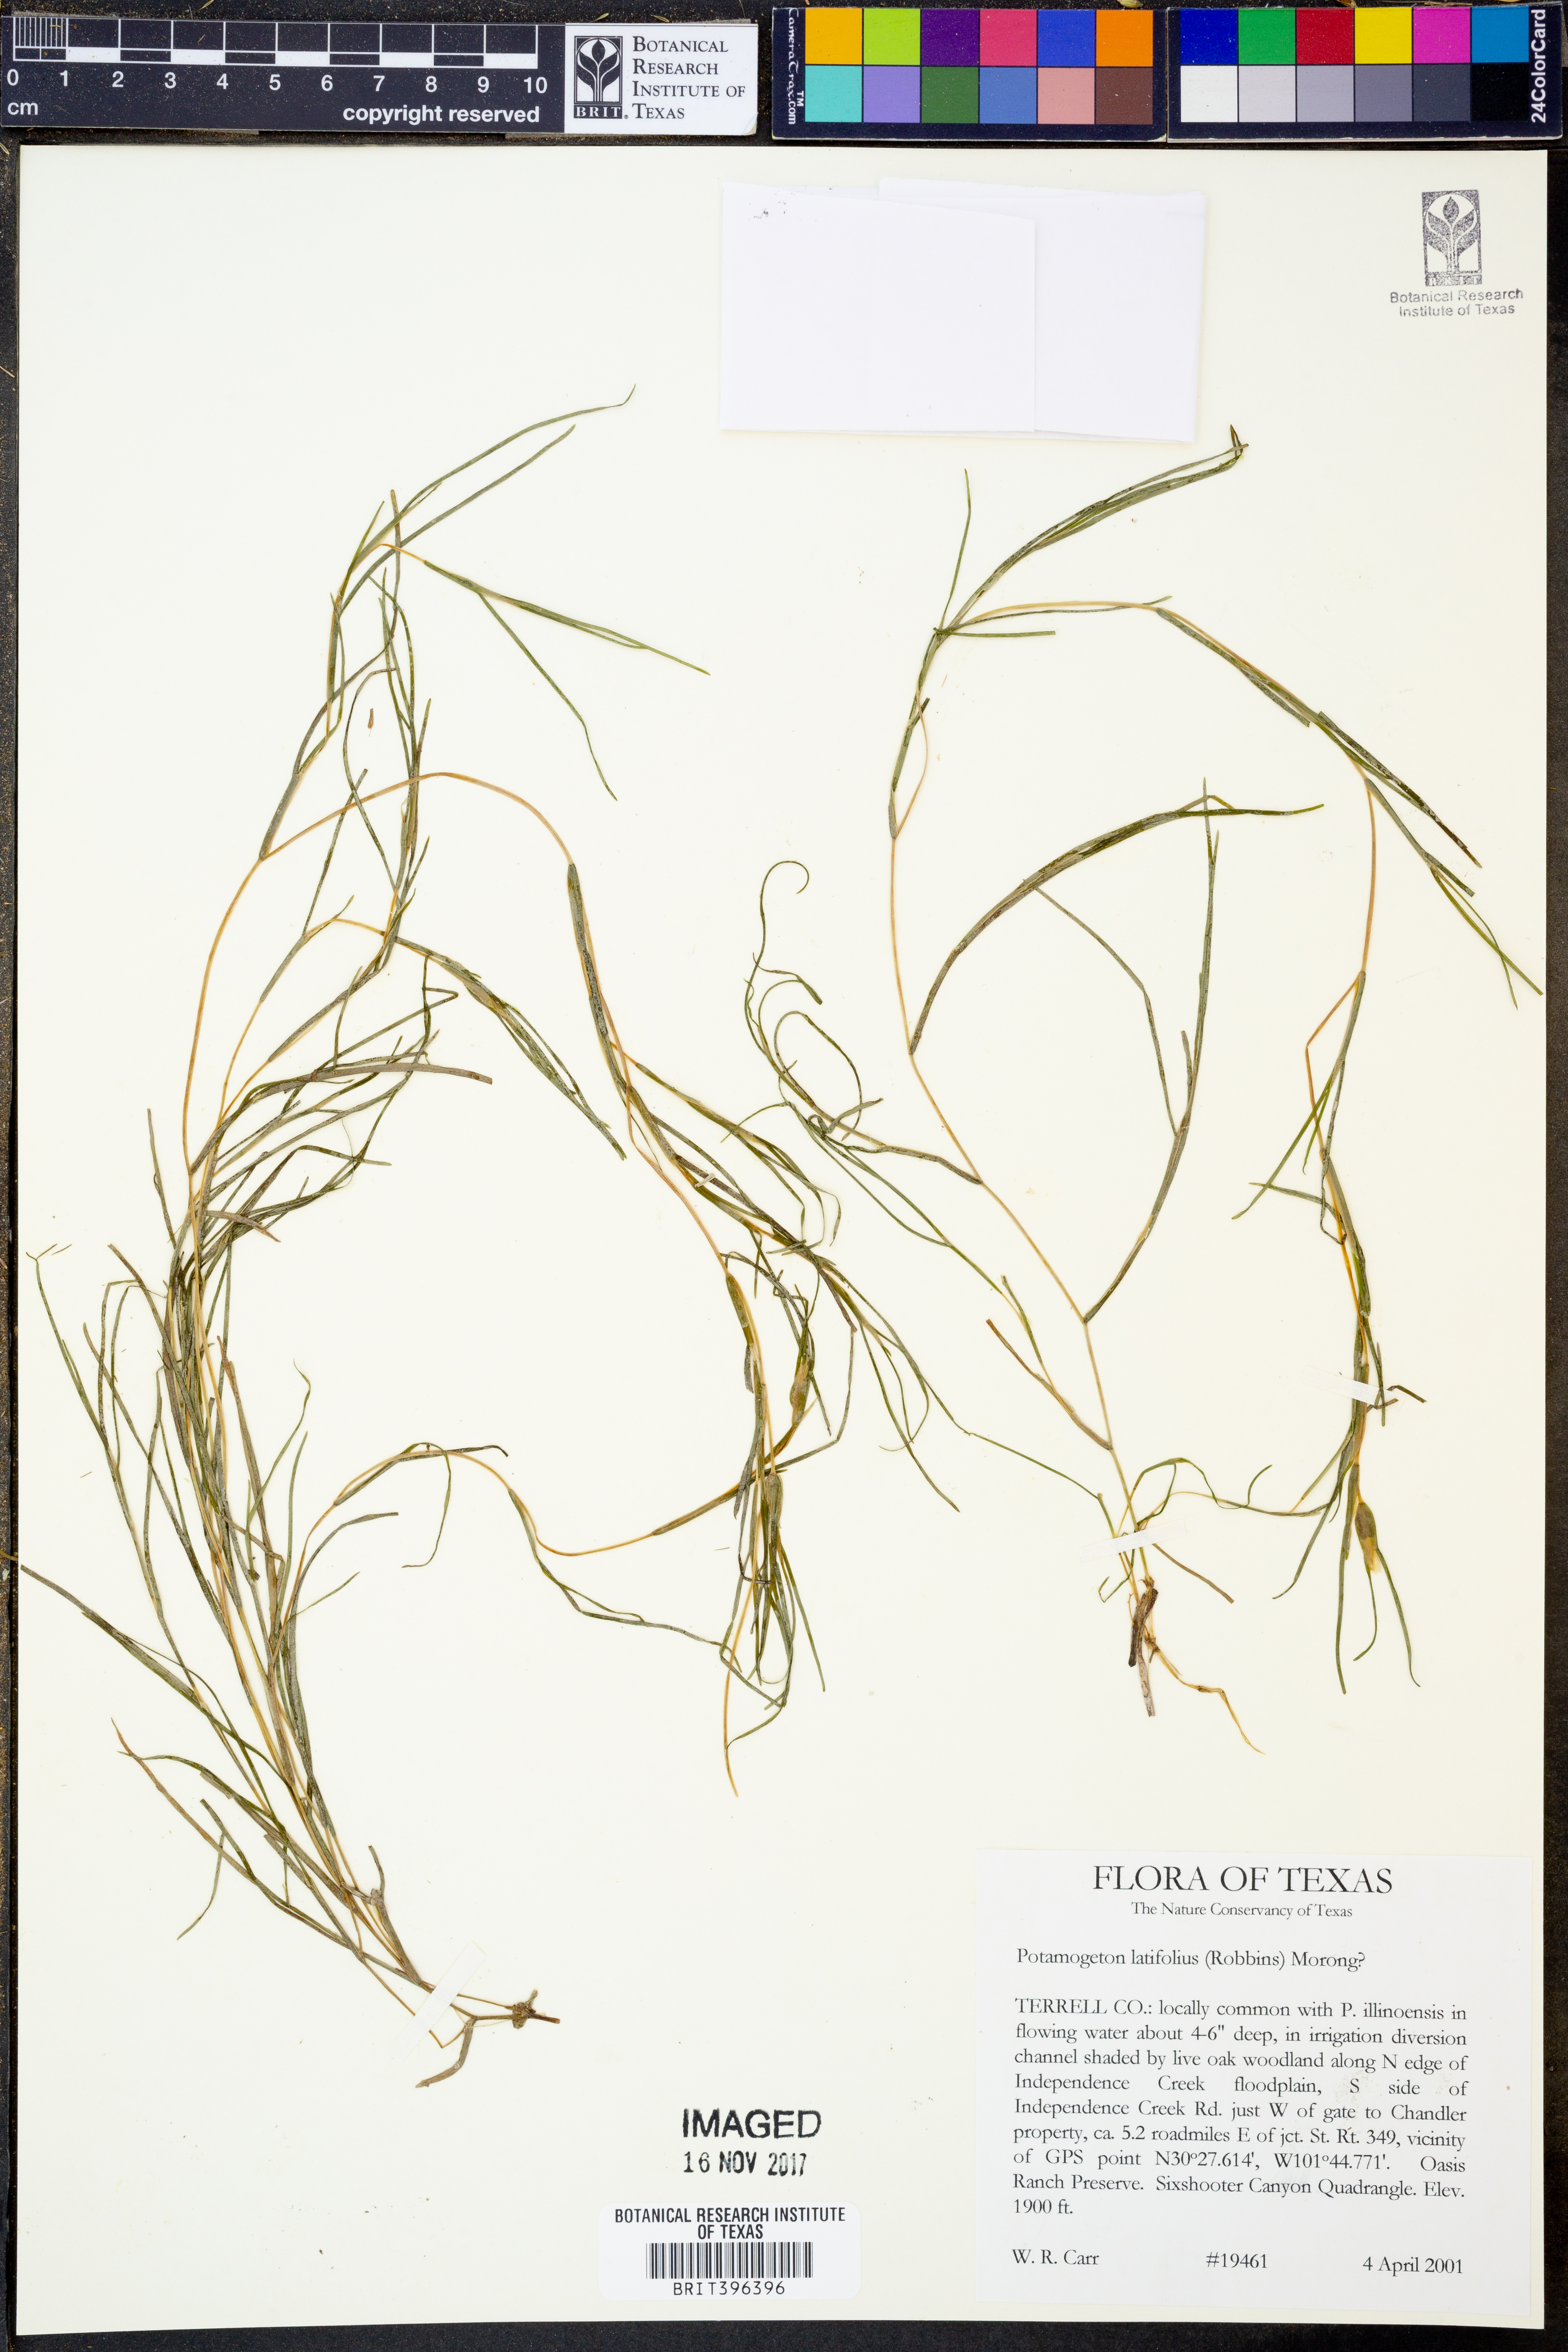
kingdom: Plantae
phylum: Tracheophyta
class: Liliopsida
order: Alismatales
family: Potamogetonaceae
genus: Stuckenia
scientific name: Stuckenia striata
